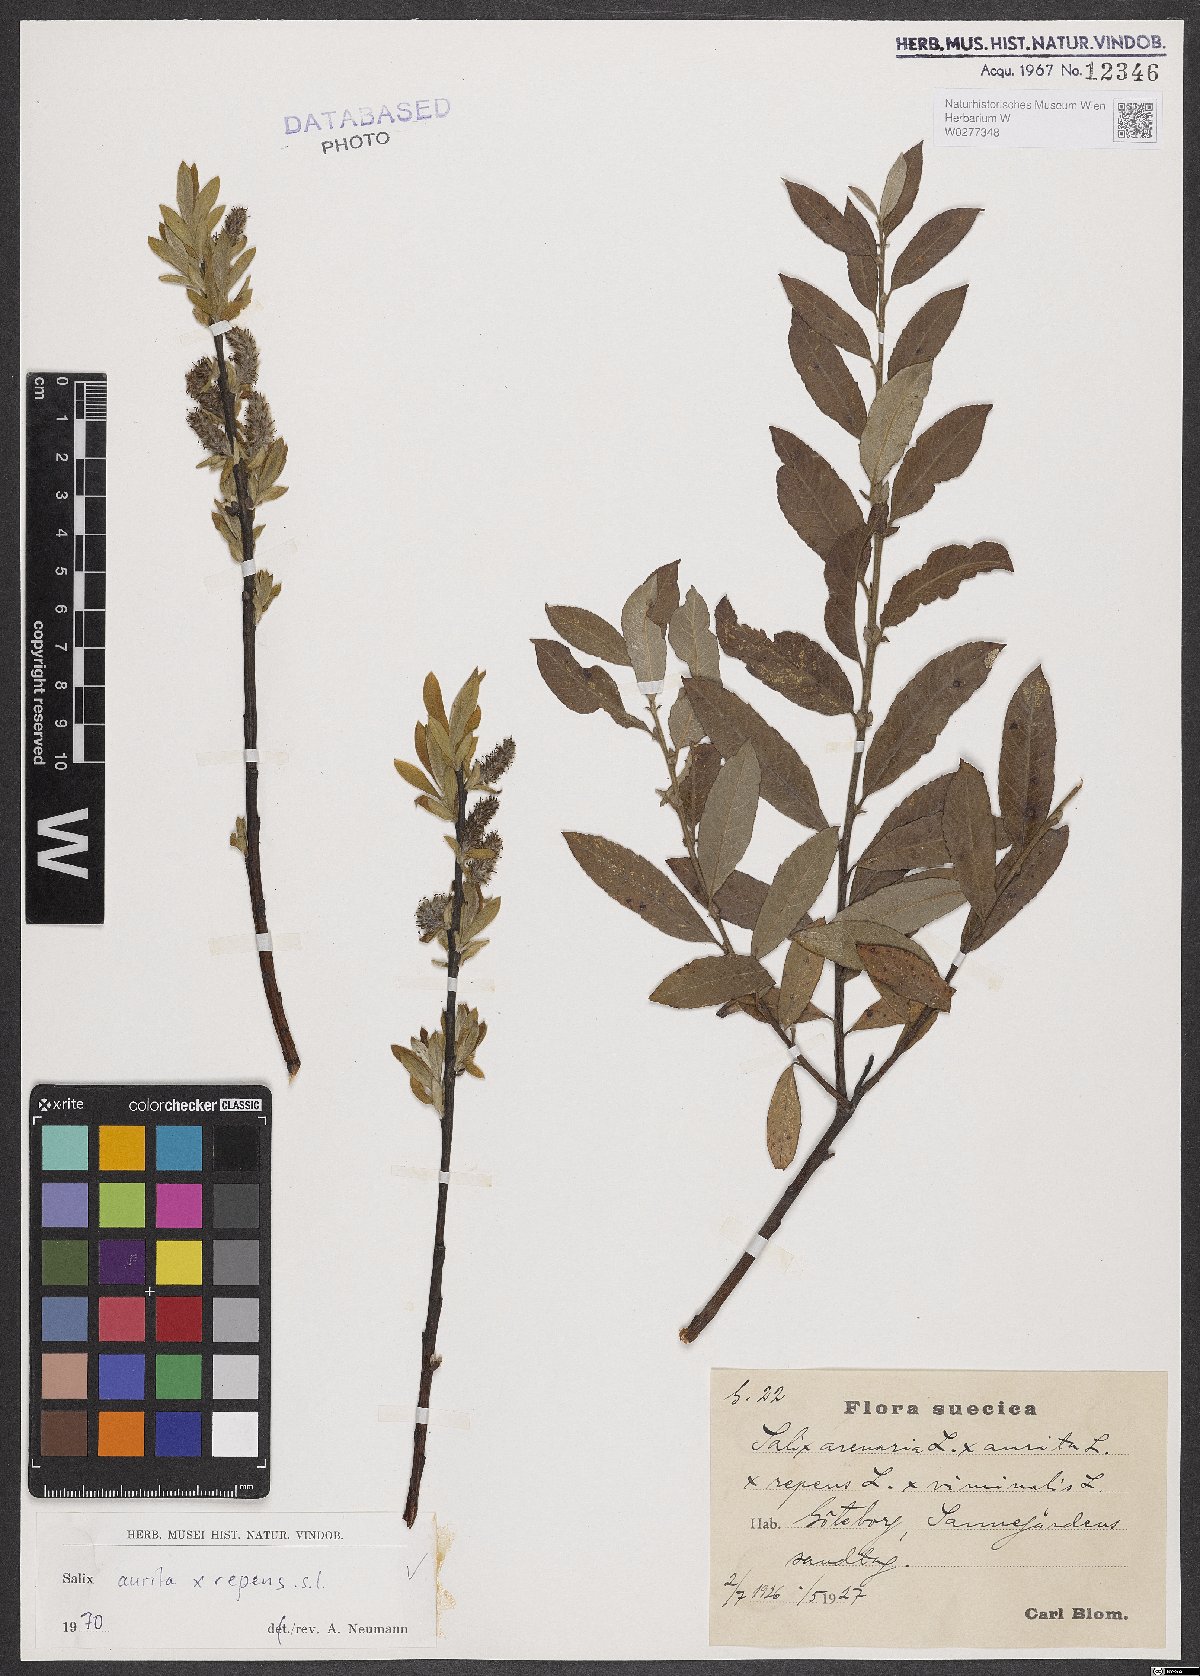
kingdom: Plantae
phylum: Tracheophyta
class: Magnoliopsida
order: Malpighiales
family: Salicaceae
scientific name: Salicaceae
